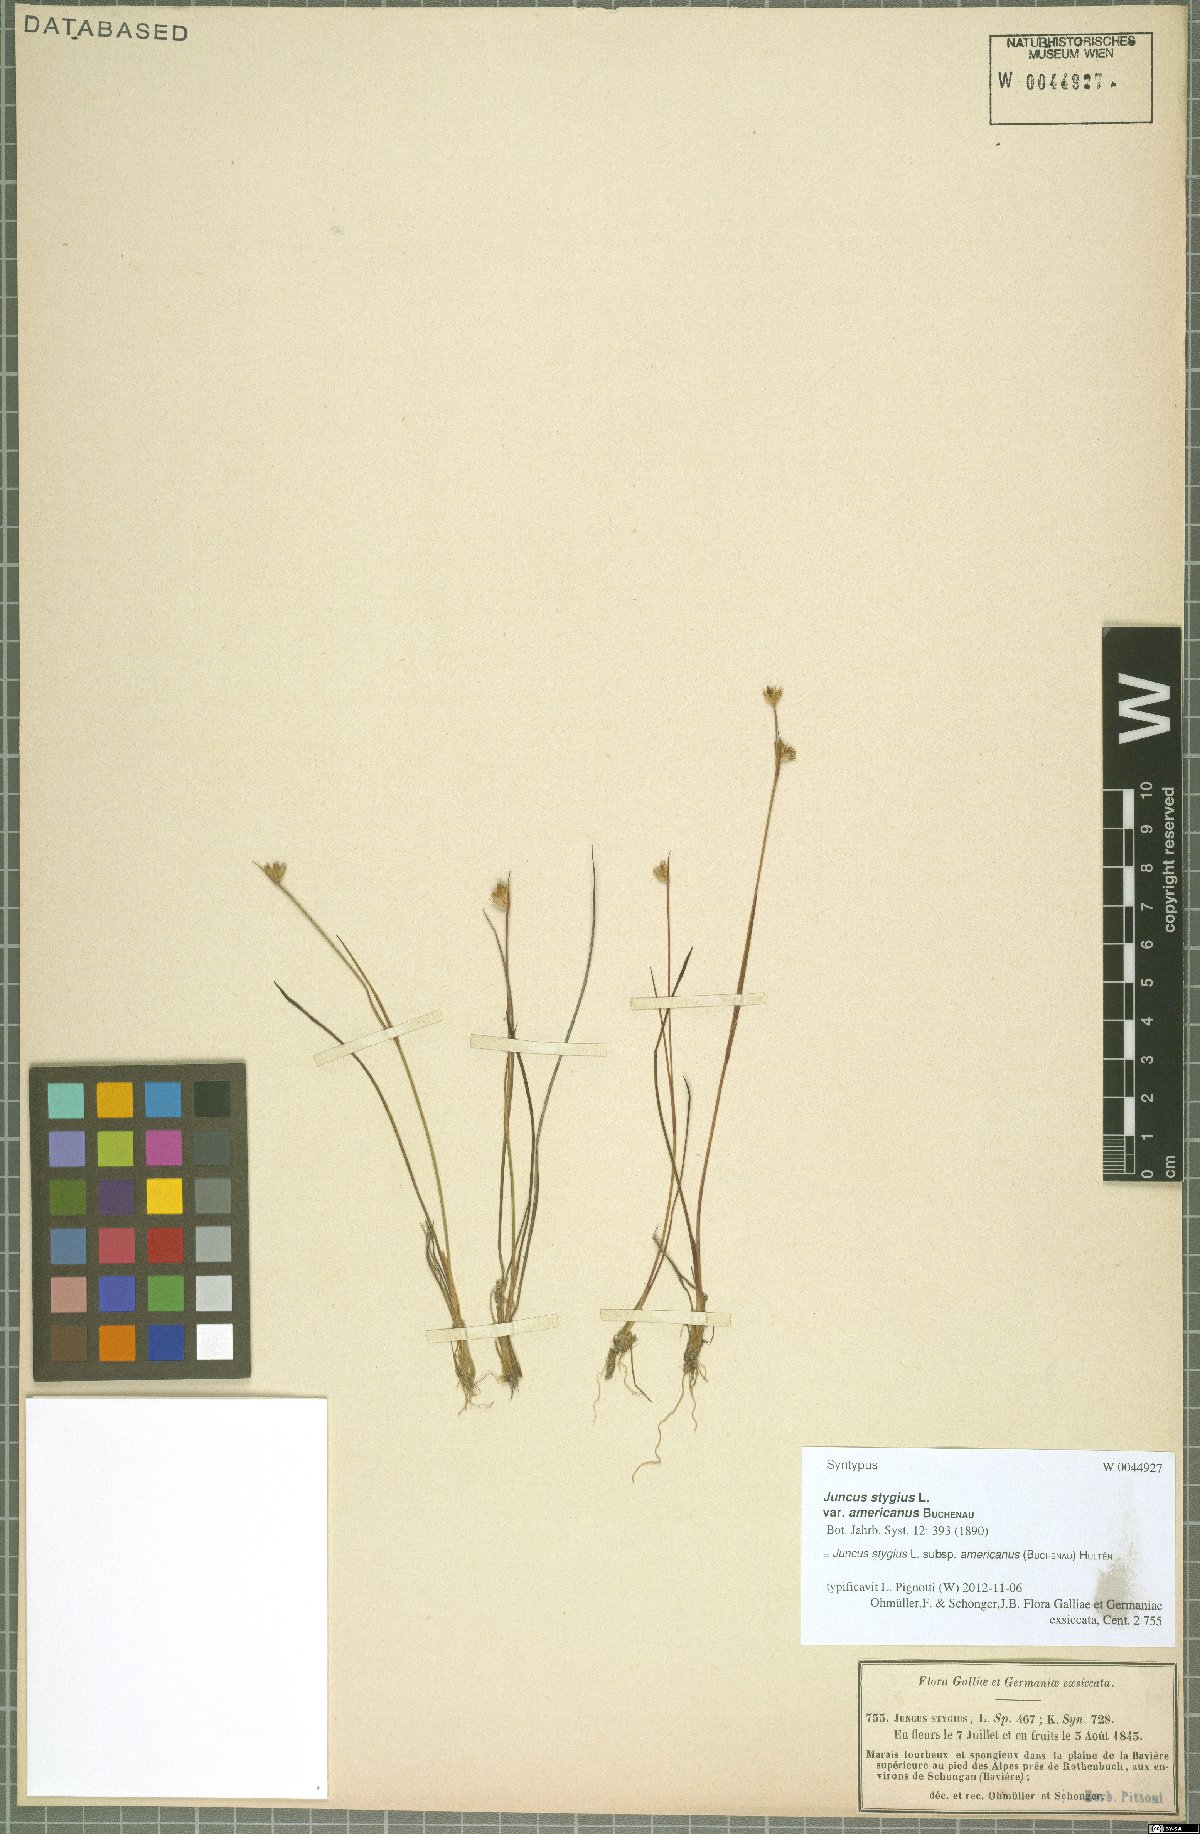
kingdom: Plantae
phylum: Tracheophyta
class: Liliopsida
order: Poales
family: Juncaceae
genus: Juncus
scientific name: Juncus stygius
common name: Bog rush
